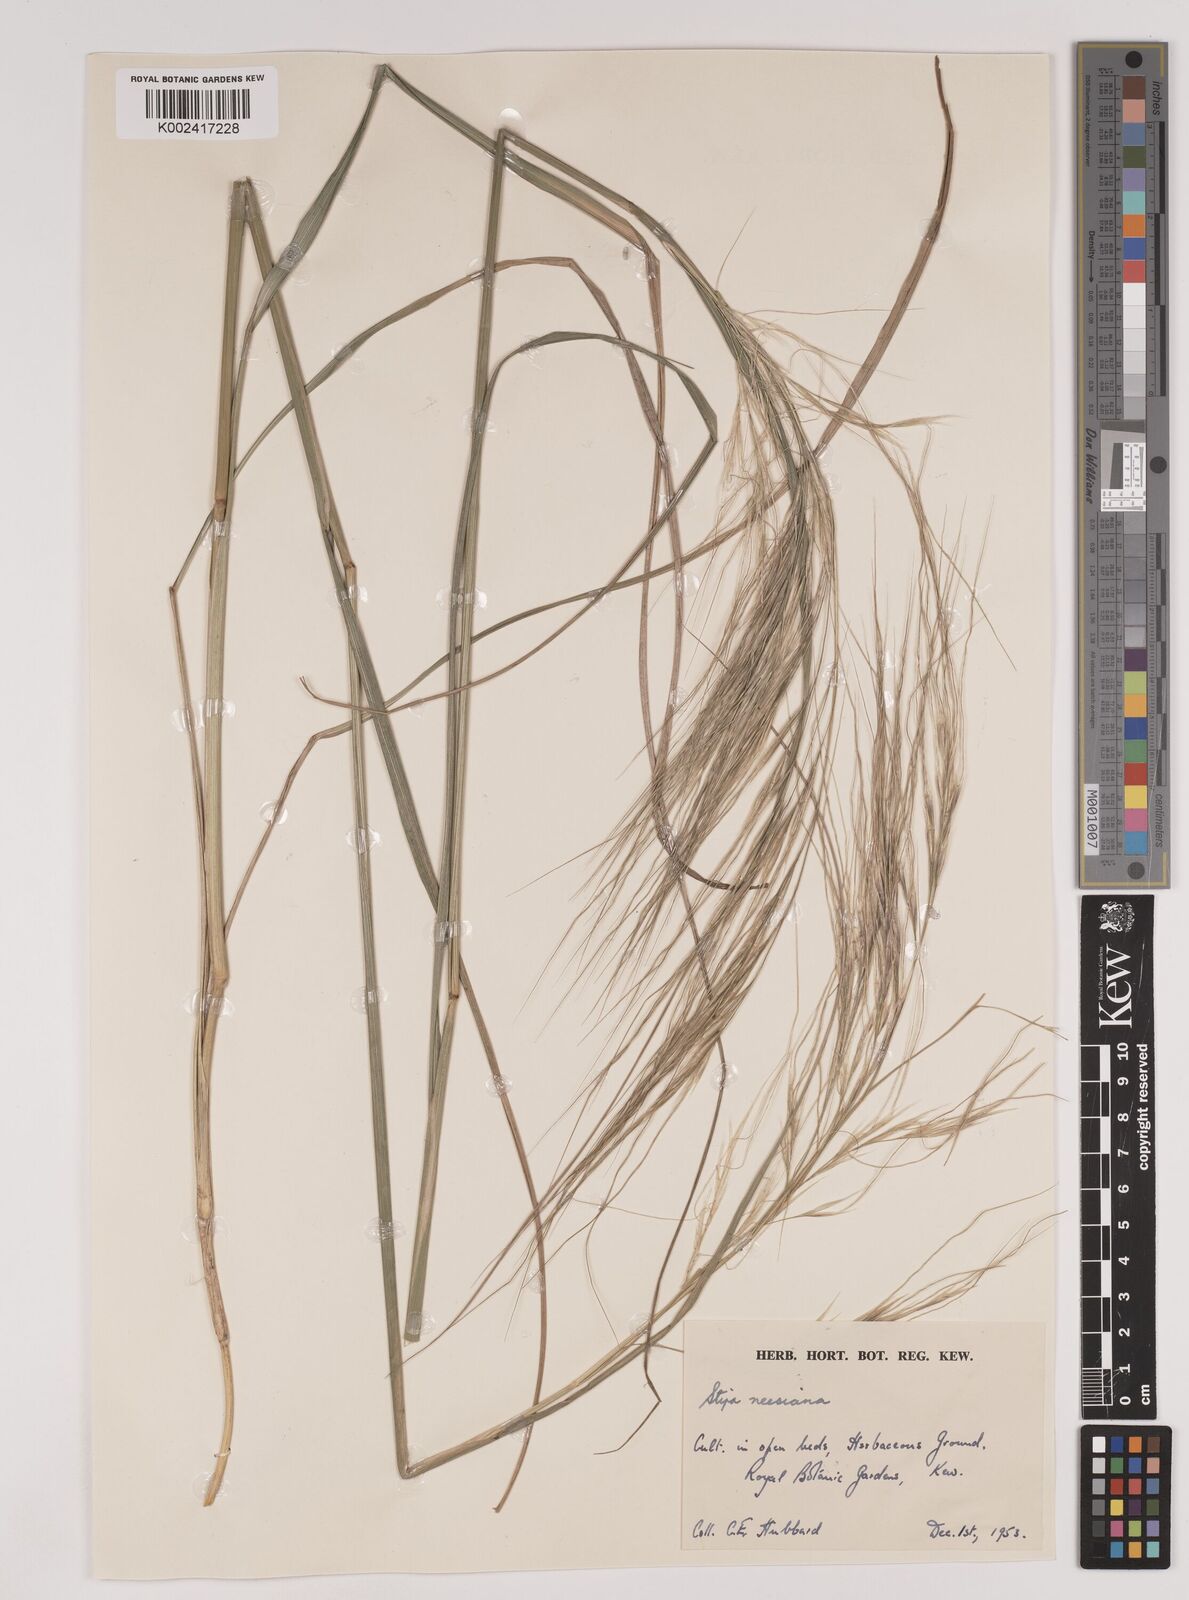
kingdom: Plantae
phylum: Tracheophyta
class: Liliopsida
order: Poales
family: Poaceae
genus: Nassella
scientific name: Nassella neesiana
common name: American needle-grass
